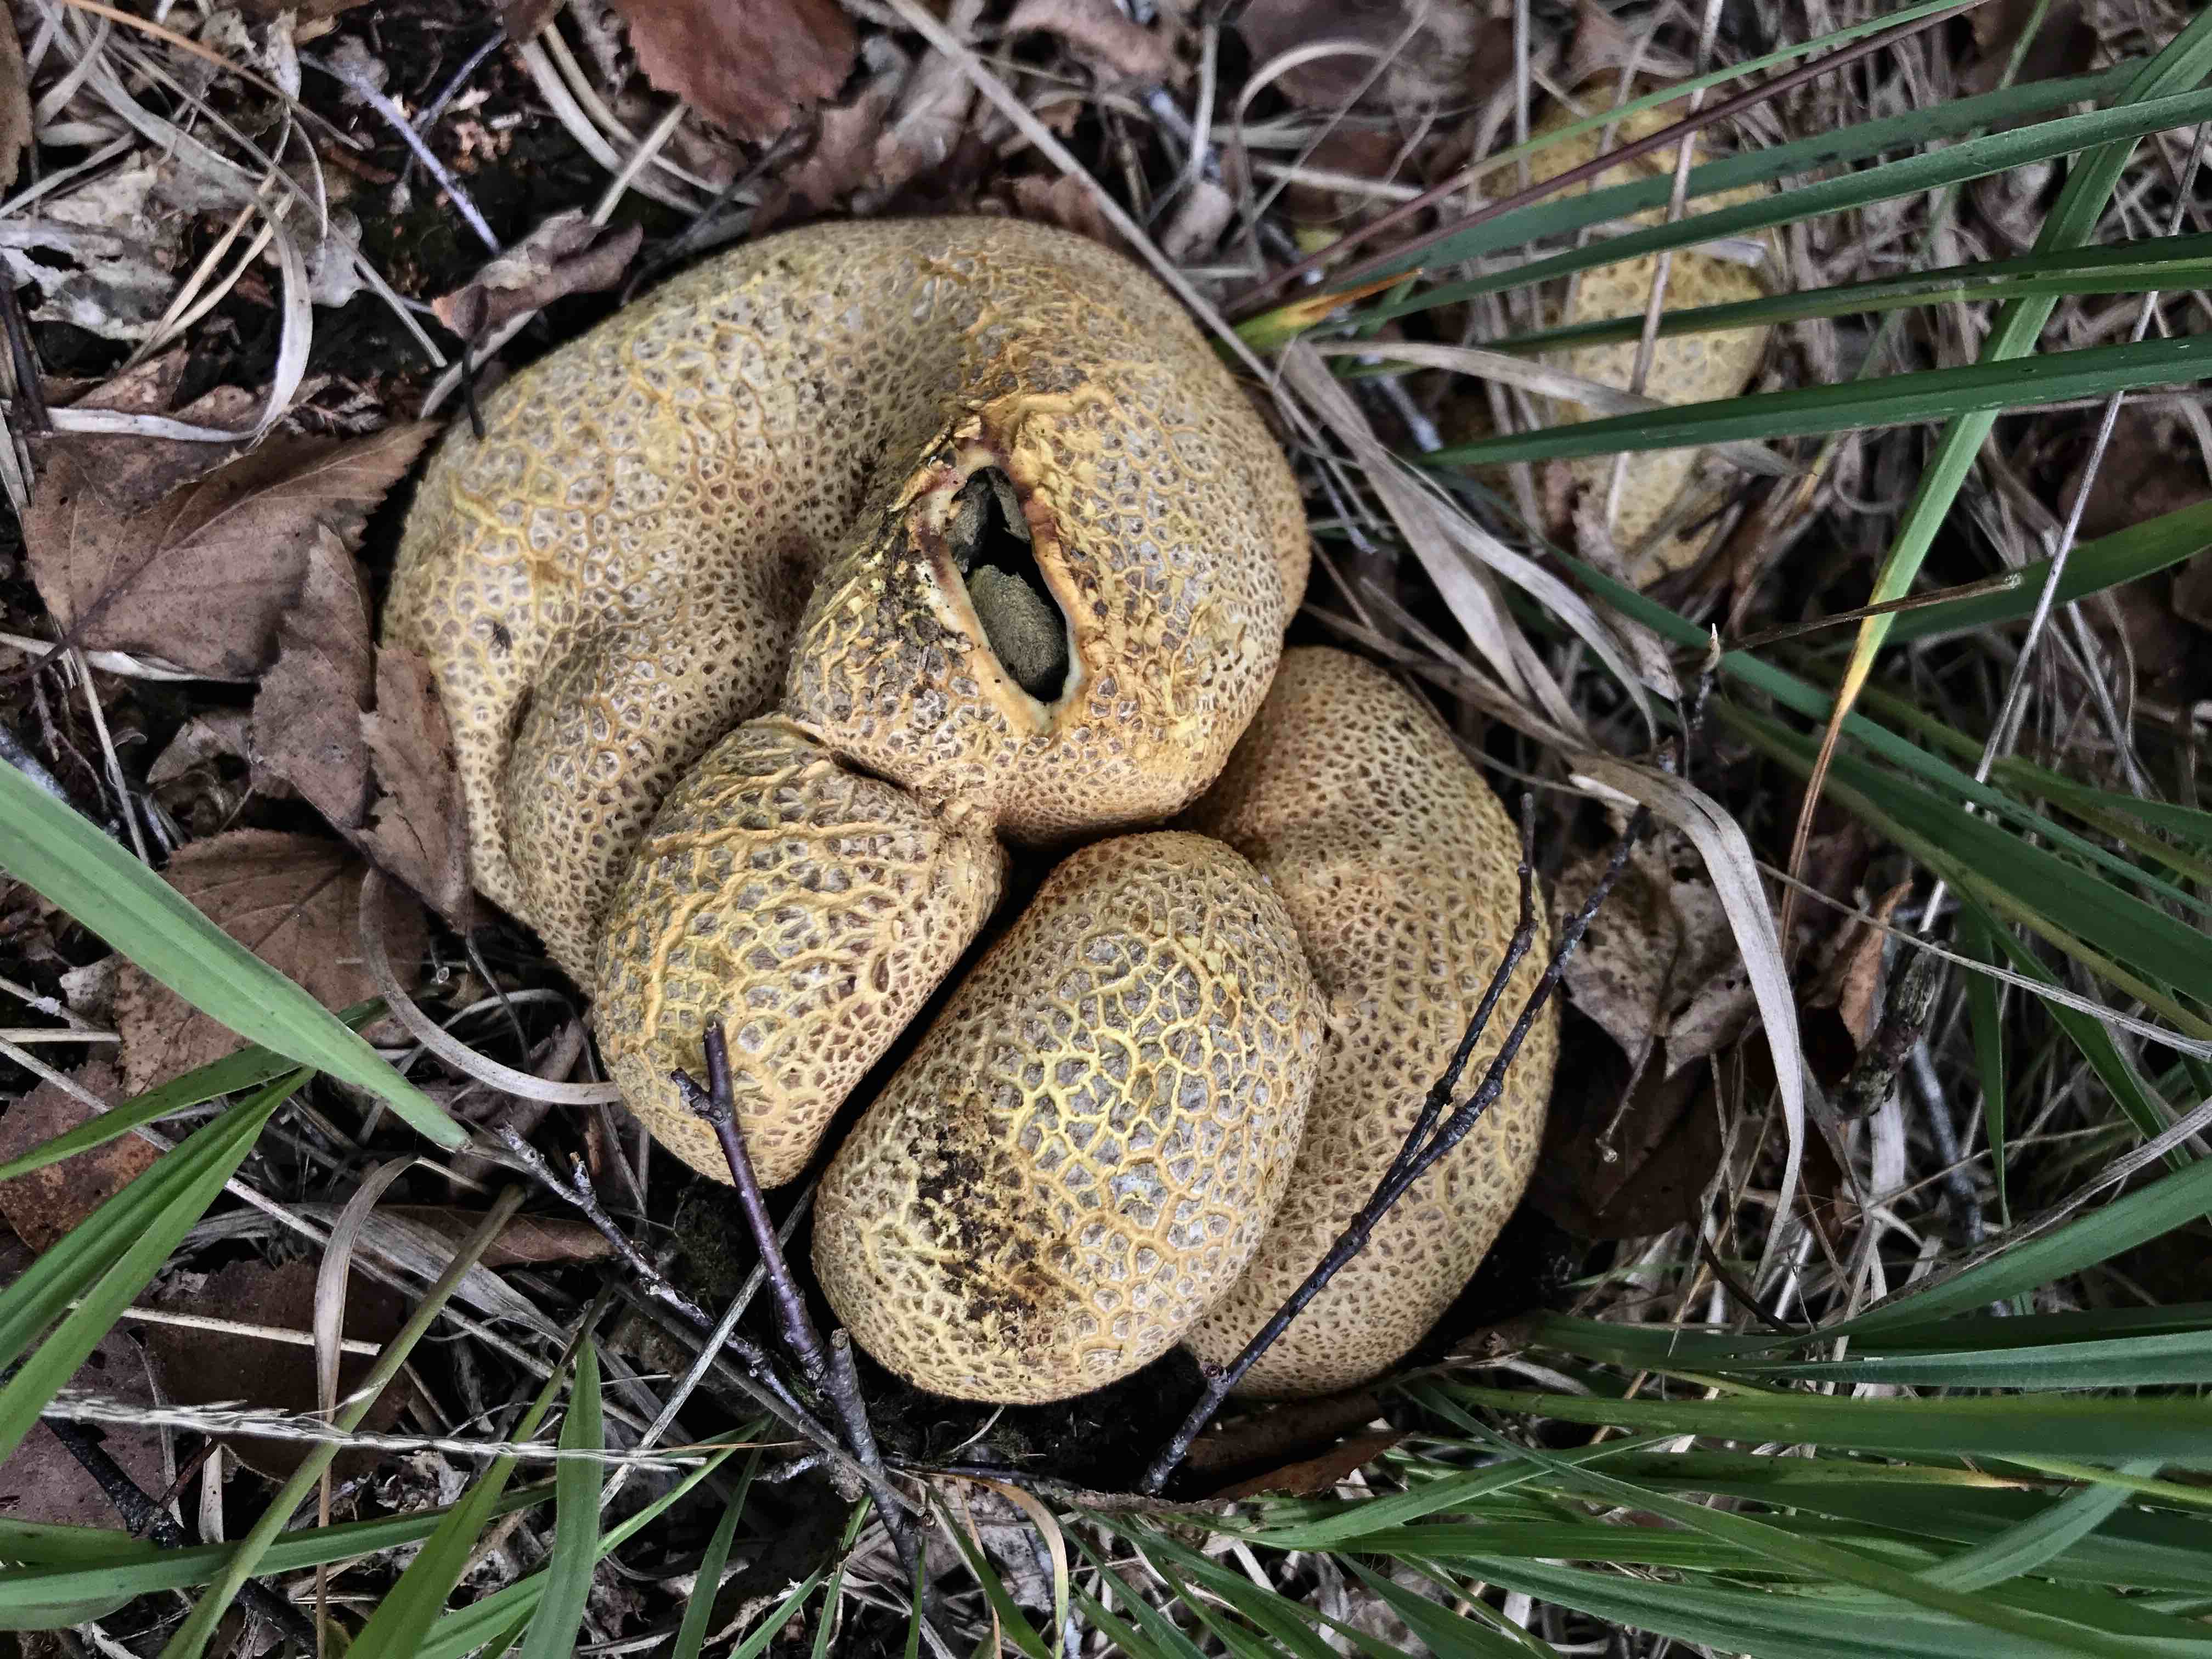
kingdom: Fungi
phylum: Basidiomycota
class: Agaricomycetes
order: Boletales
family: Sclerodermataceae
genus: Scleroderma
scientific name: Scleroderma citrinum
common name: almindelig bruskbold
